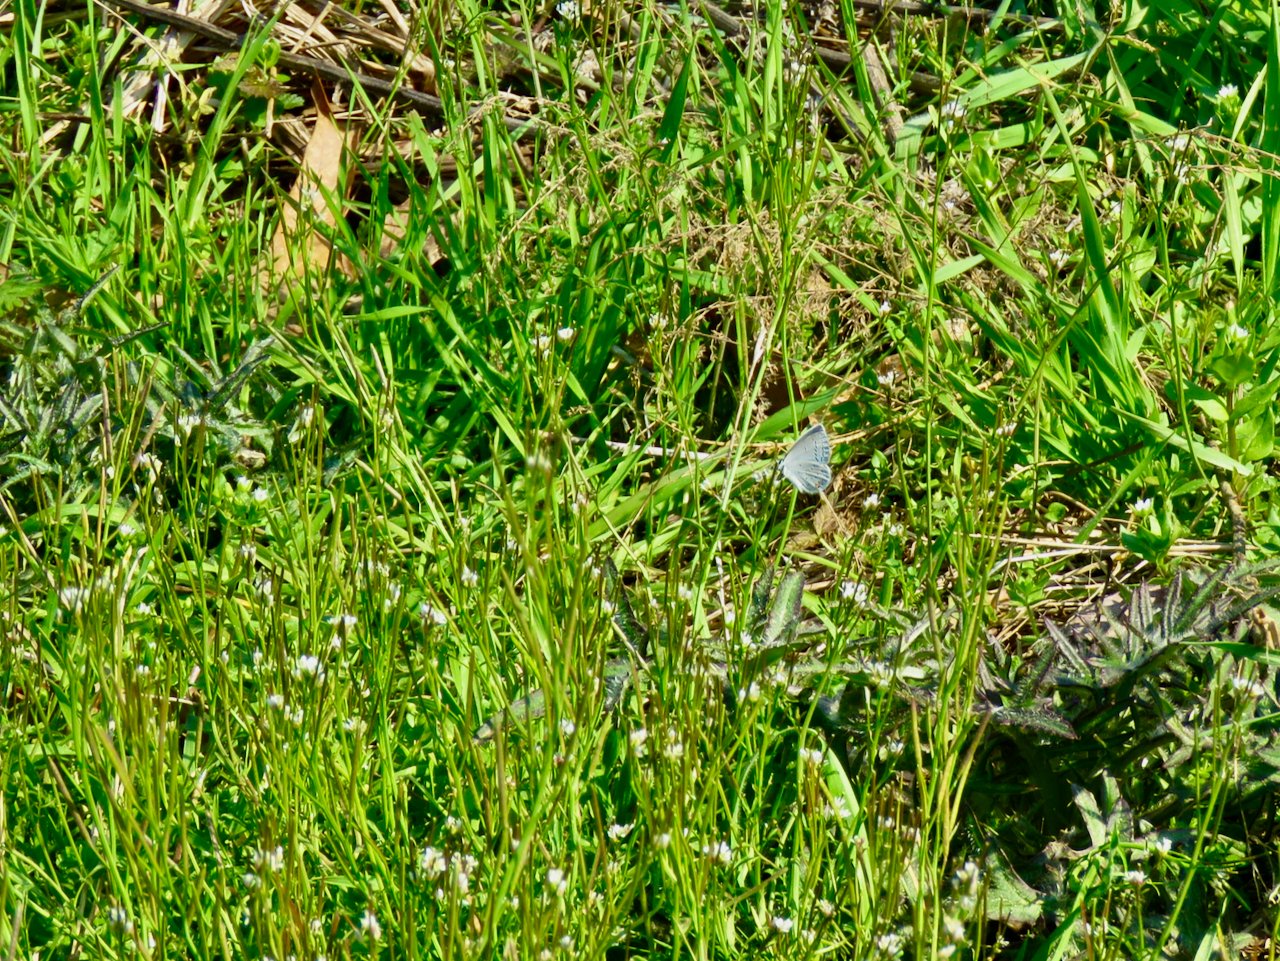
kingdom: Animalia
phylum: Arthropoda
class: Insecta
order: Lepidoptera
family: Lycaenidae
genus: Elkalyce
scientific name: Elkalyce comyntas
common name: Eastern Tailed-Blue
